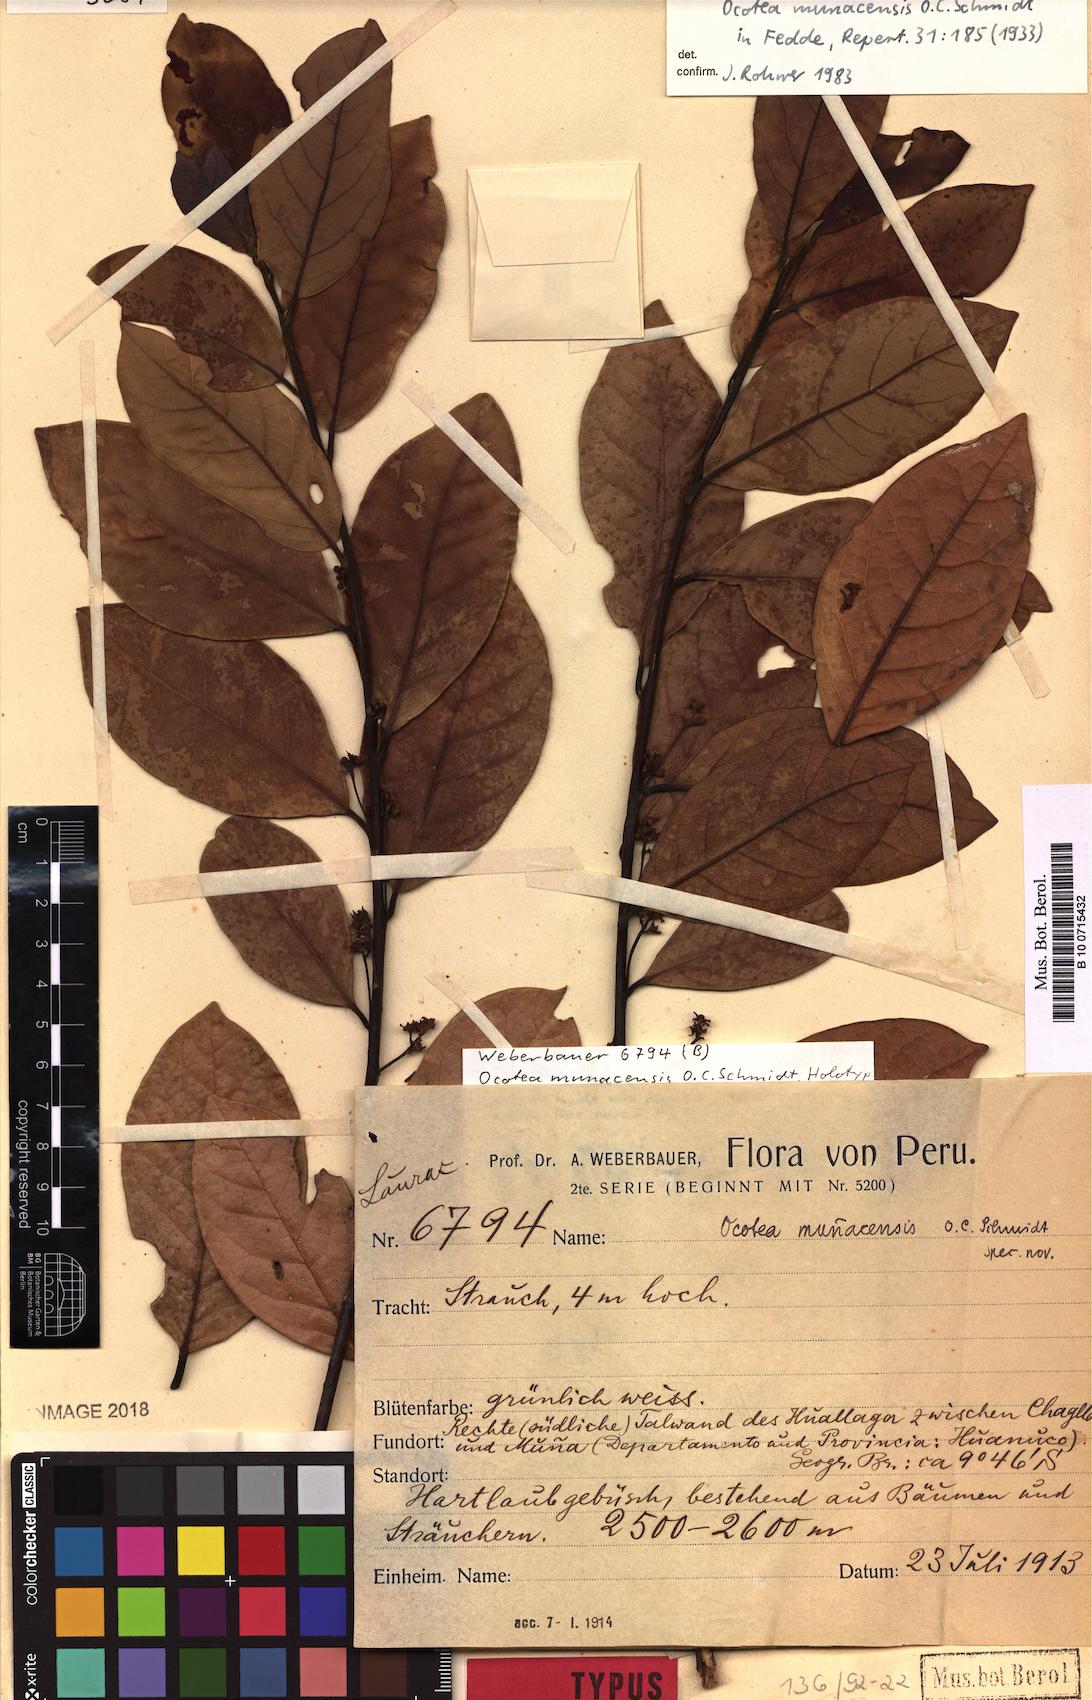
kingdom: Plantae
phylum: Tracheophyta
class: Magnoliopsida
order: Laurales
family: Lauraceae
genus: Ocotea
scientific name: Ocotea munacensis
